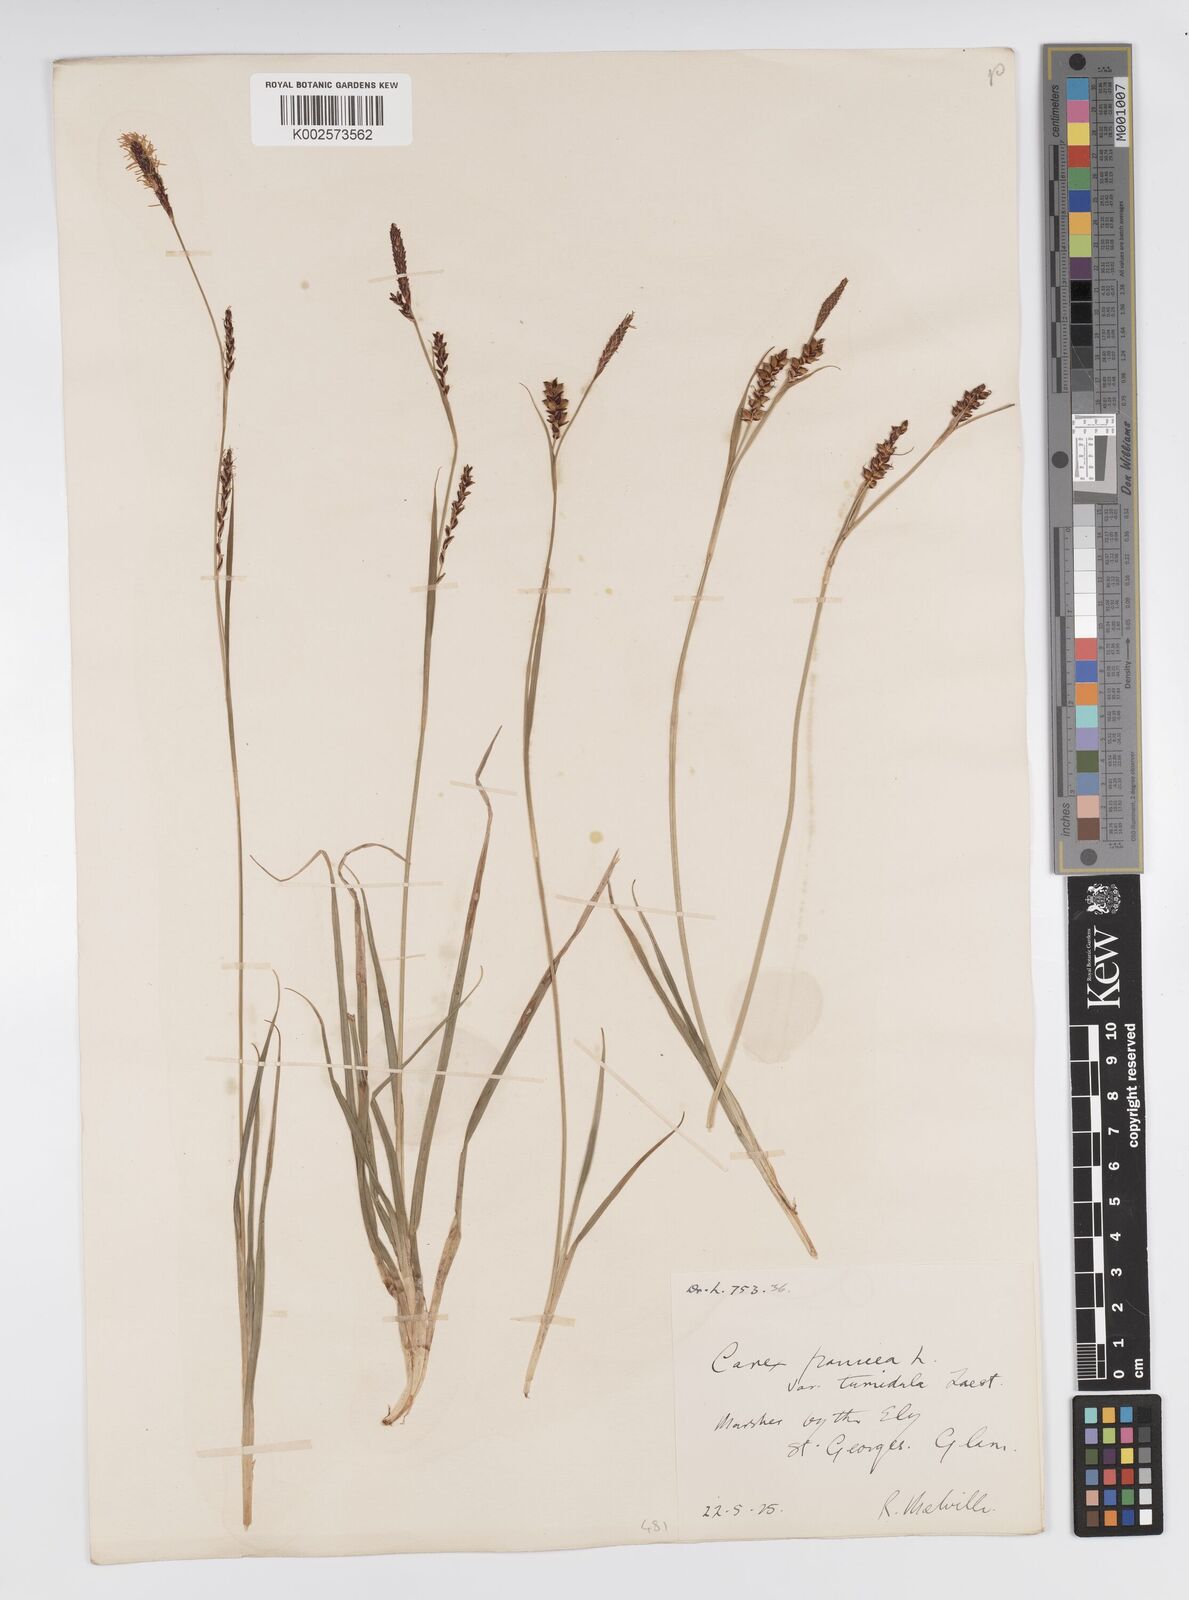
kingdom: Plantae
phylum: Tracheophyta
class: Liliopsida
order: Poales
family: Cyperaceae
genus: Carex
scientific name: Carex panicea
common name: Carnation sedge
